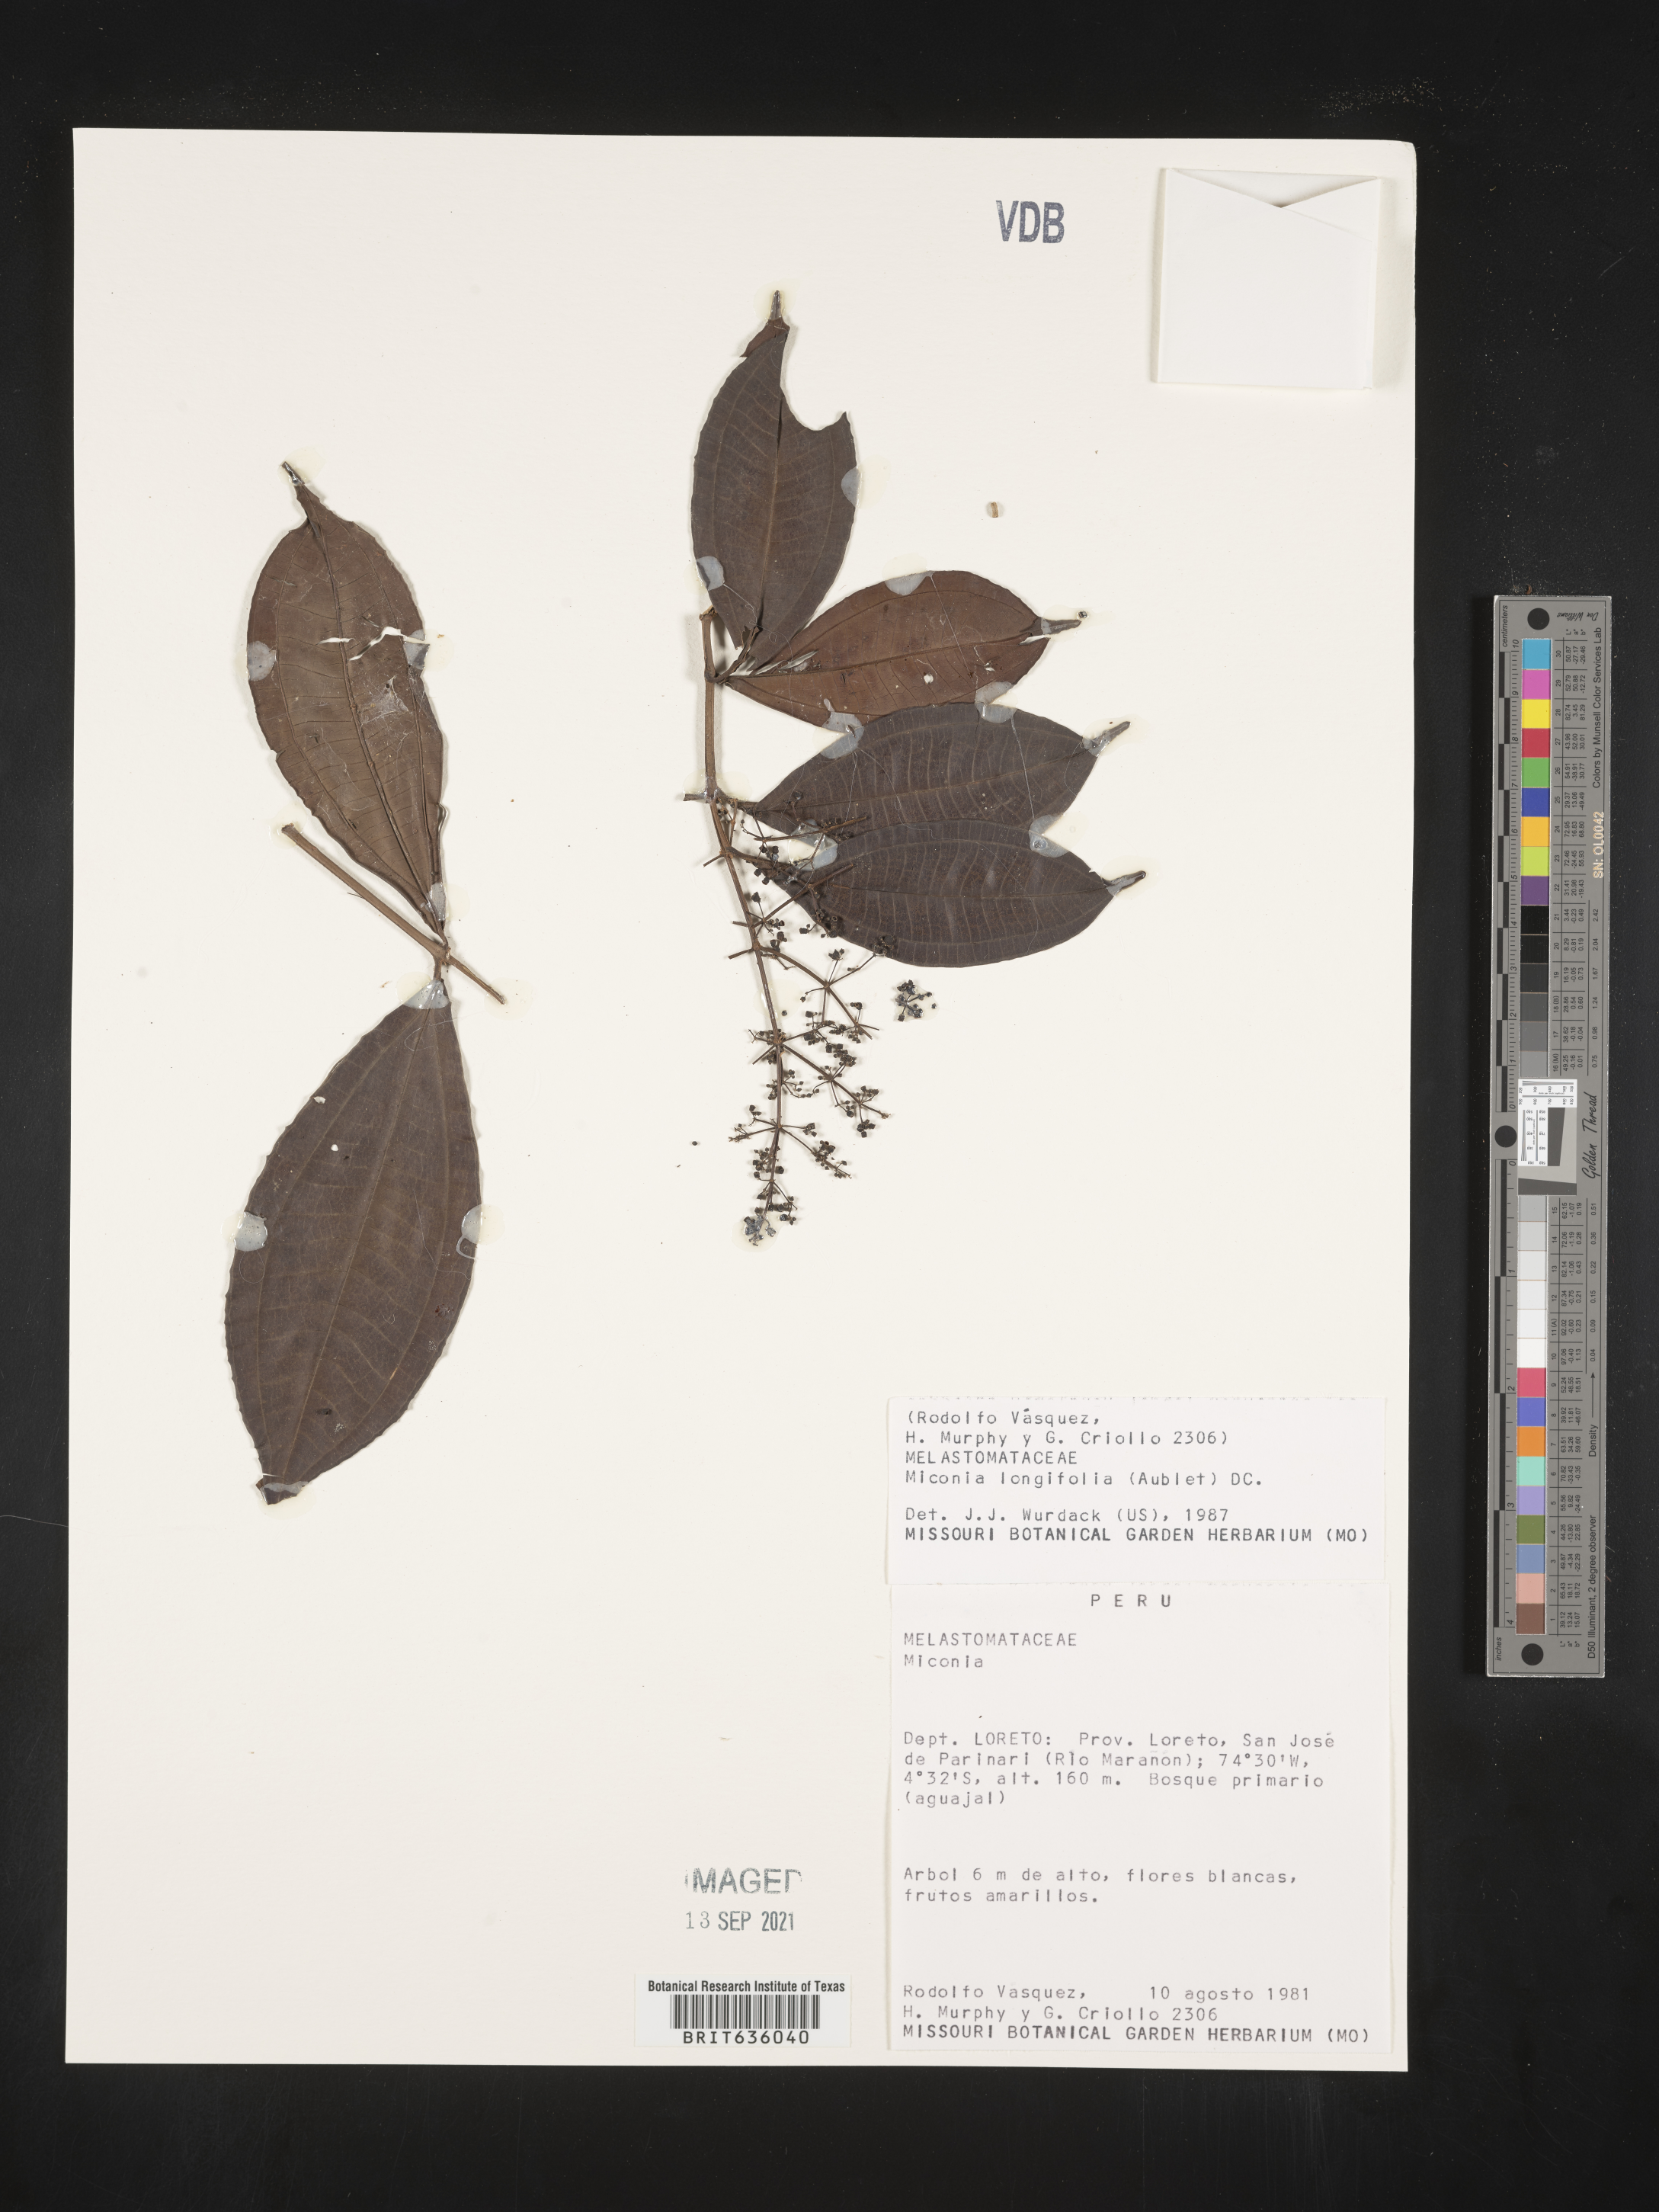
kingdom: Plantae
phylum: Tracheophyta
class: Magnoliopsida
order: Myrtales
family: Melastomataceae
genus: Miconia
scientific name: Miconia
